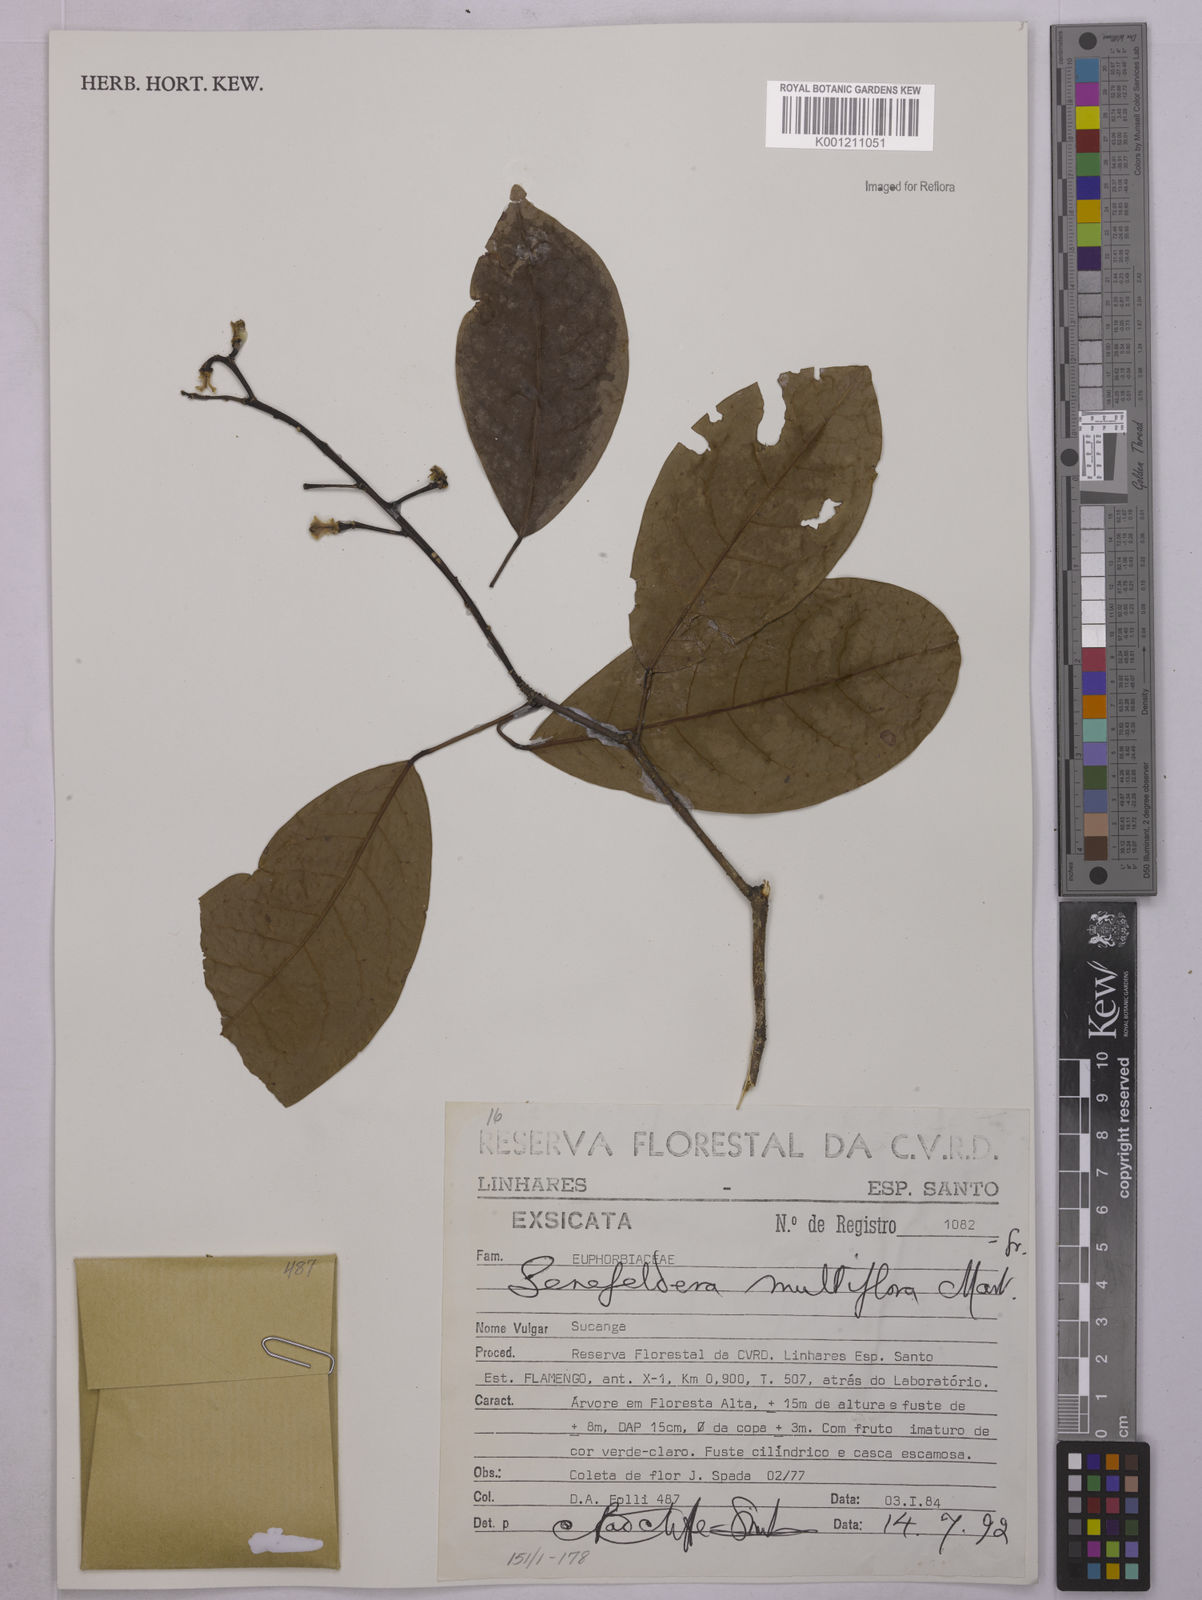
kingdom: Plantae
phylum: Tracheophyta
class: Magnoliopsida
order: Malpighiales
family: Euphorbiaceae
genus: Senefeldera
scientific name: Senefeldera verticillata
